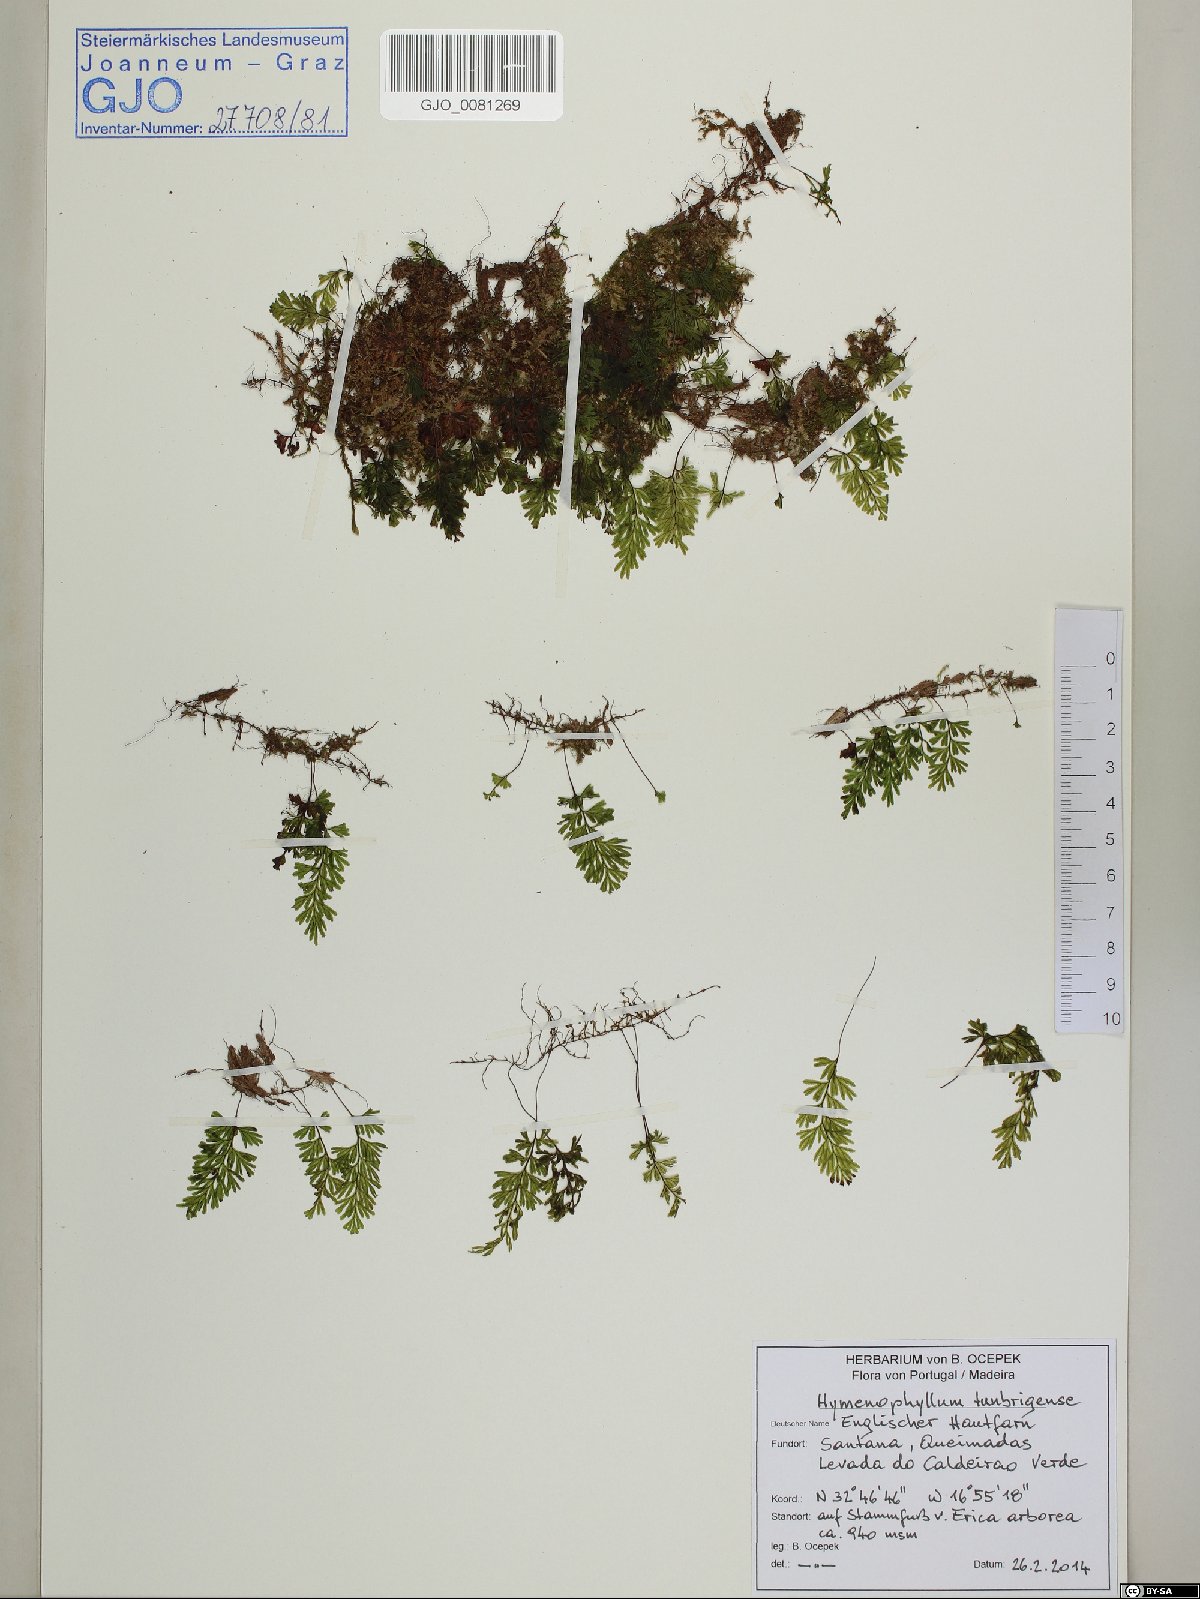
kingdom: Plantae
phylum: Tracheophyta
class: Polypodiopsida
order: Hymenophyllales
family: Hymenophyllaceae
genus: Hymenophyllum
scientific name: Hymenophyllum tunbrigense
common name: Tunbridge filmy fern
